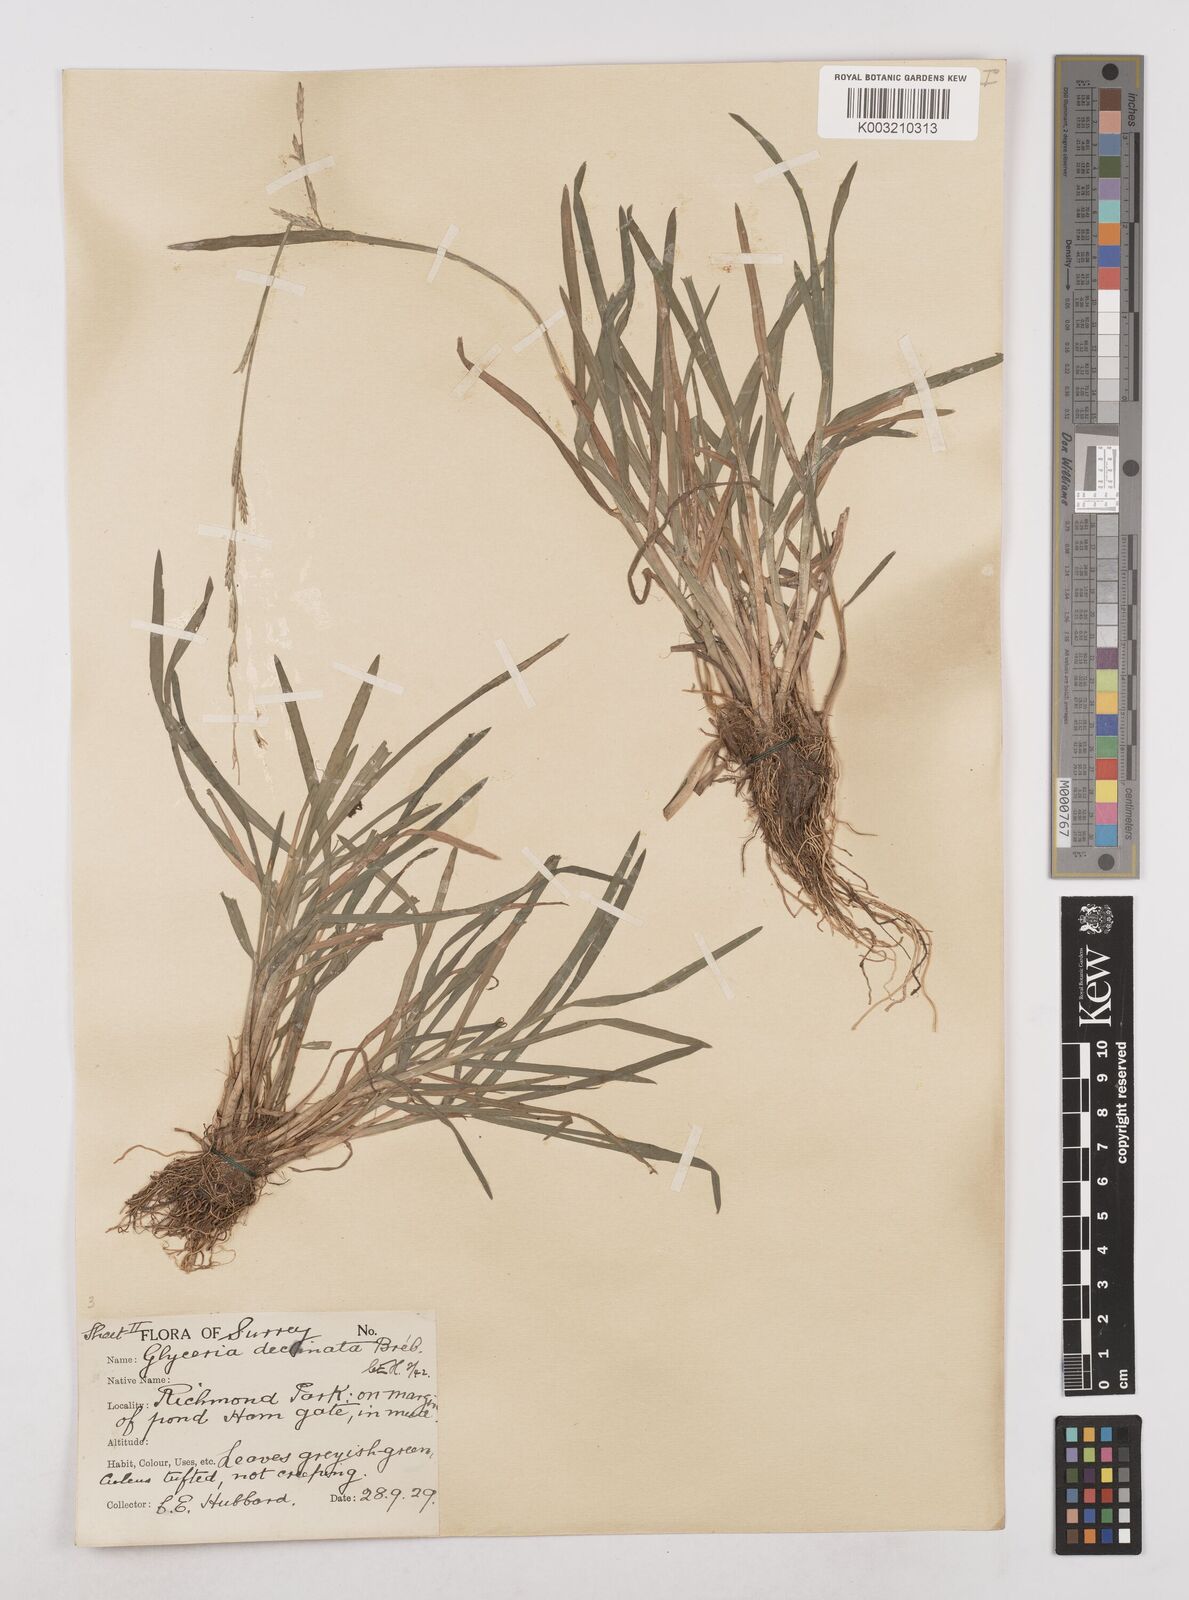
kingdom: Plantae
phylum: Tracheophyta
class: Liliopsida
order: Poales
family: Poaceae
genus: Glyceria
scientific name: Glyceria declinata
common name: Small sweet-grass
